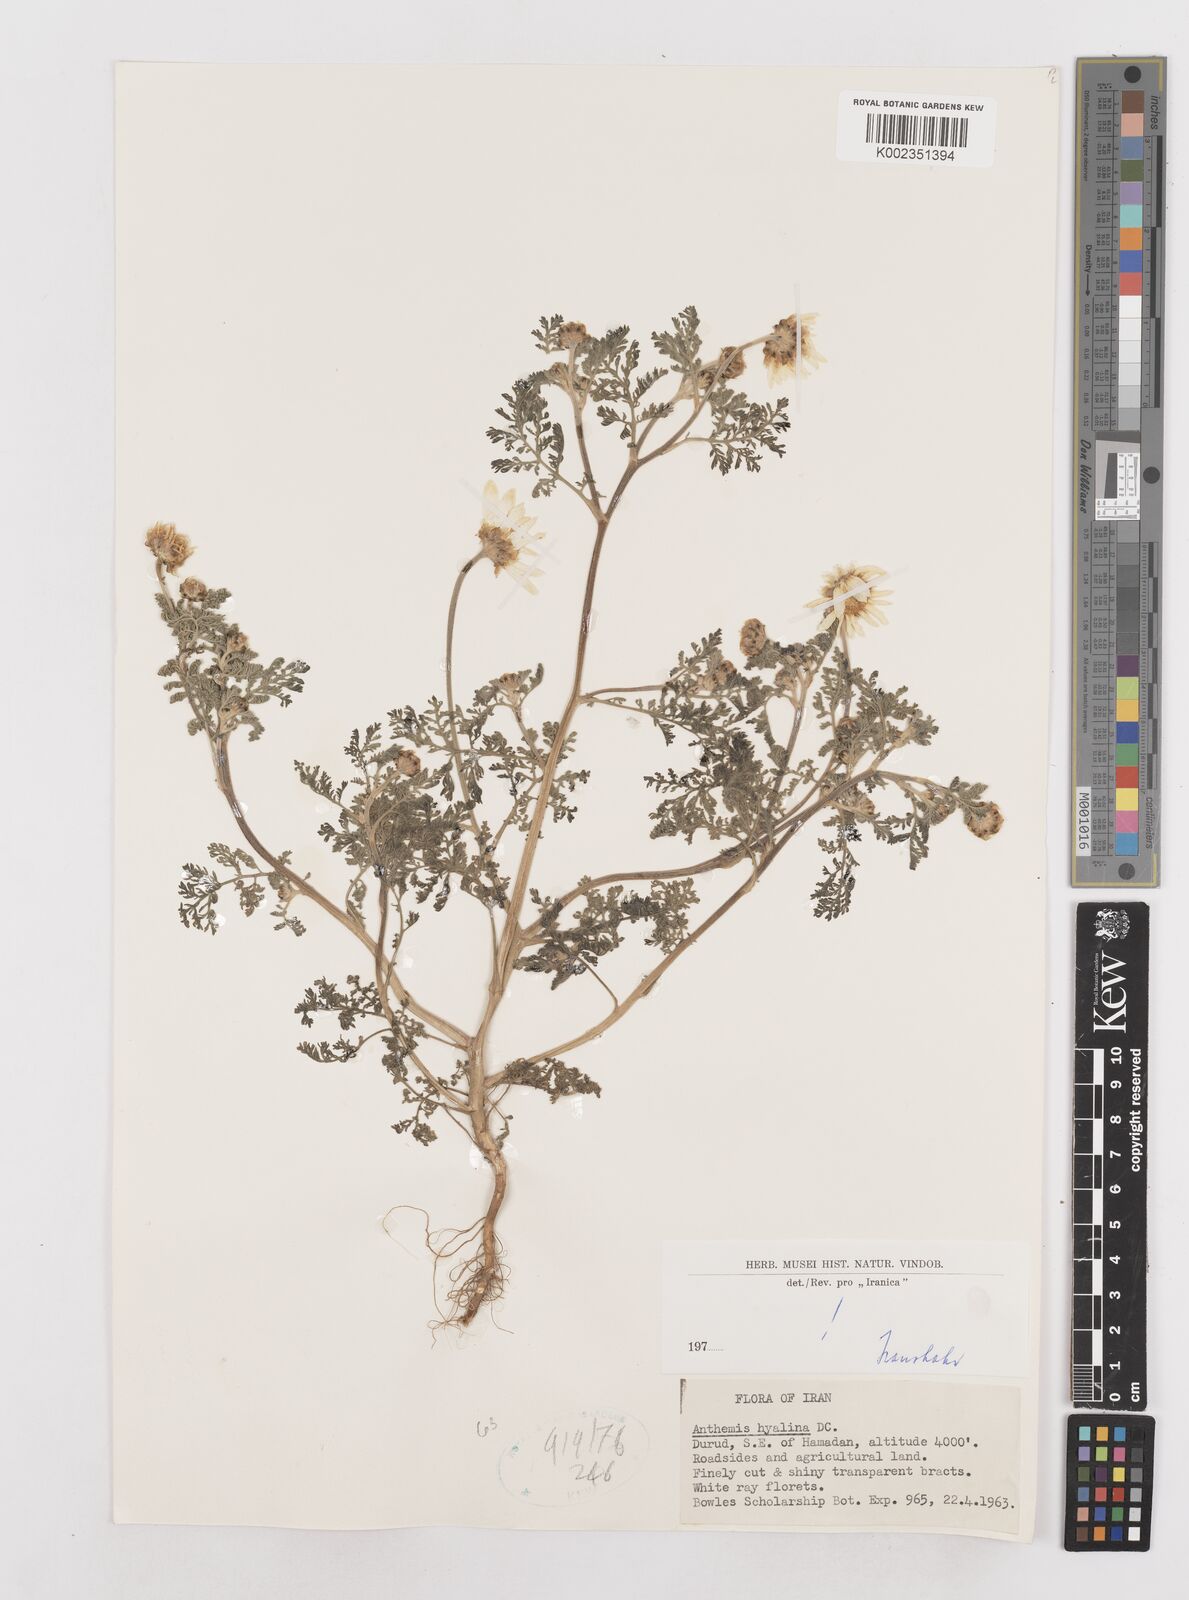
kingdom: Plantae
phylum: Tracheophyta
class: Magnoliopsida
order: Asterales
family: Asteraceae
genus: Anthemis
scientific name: Anthemis hyalina
